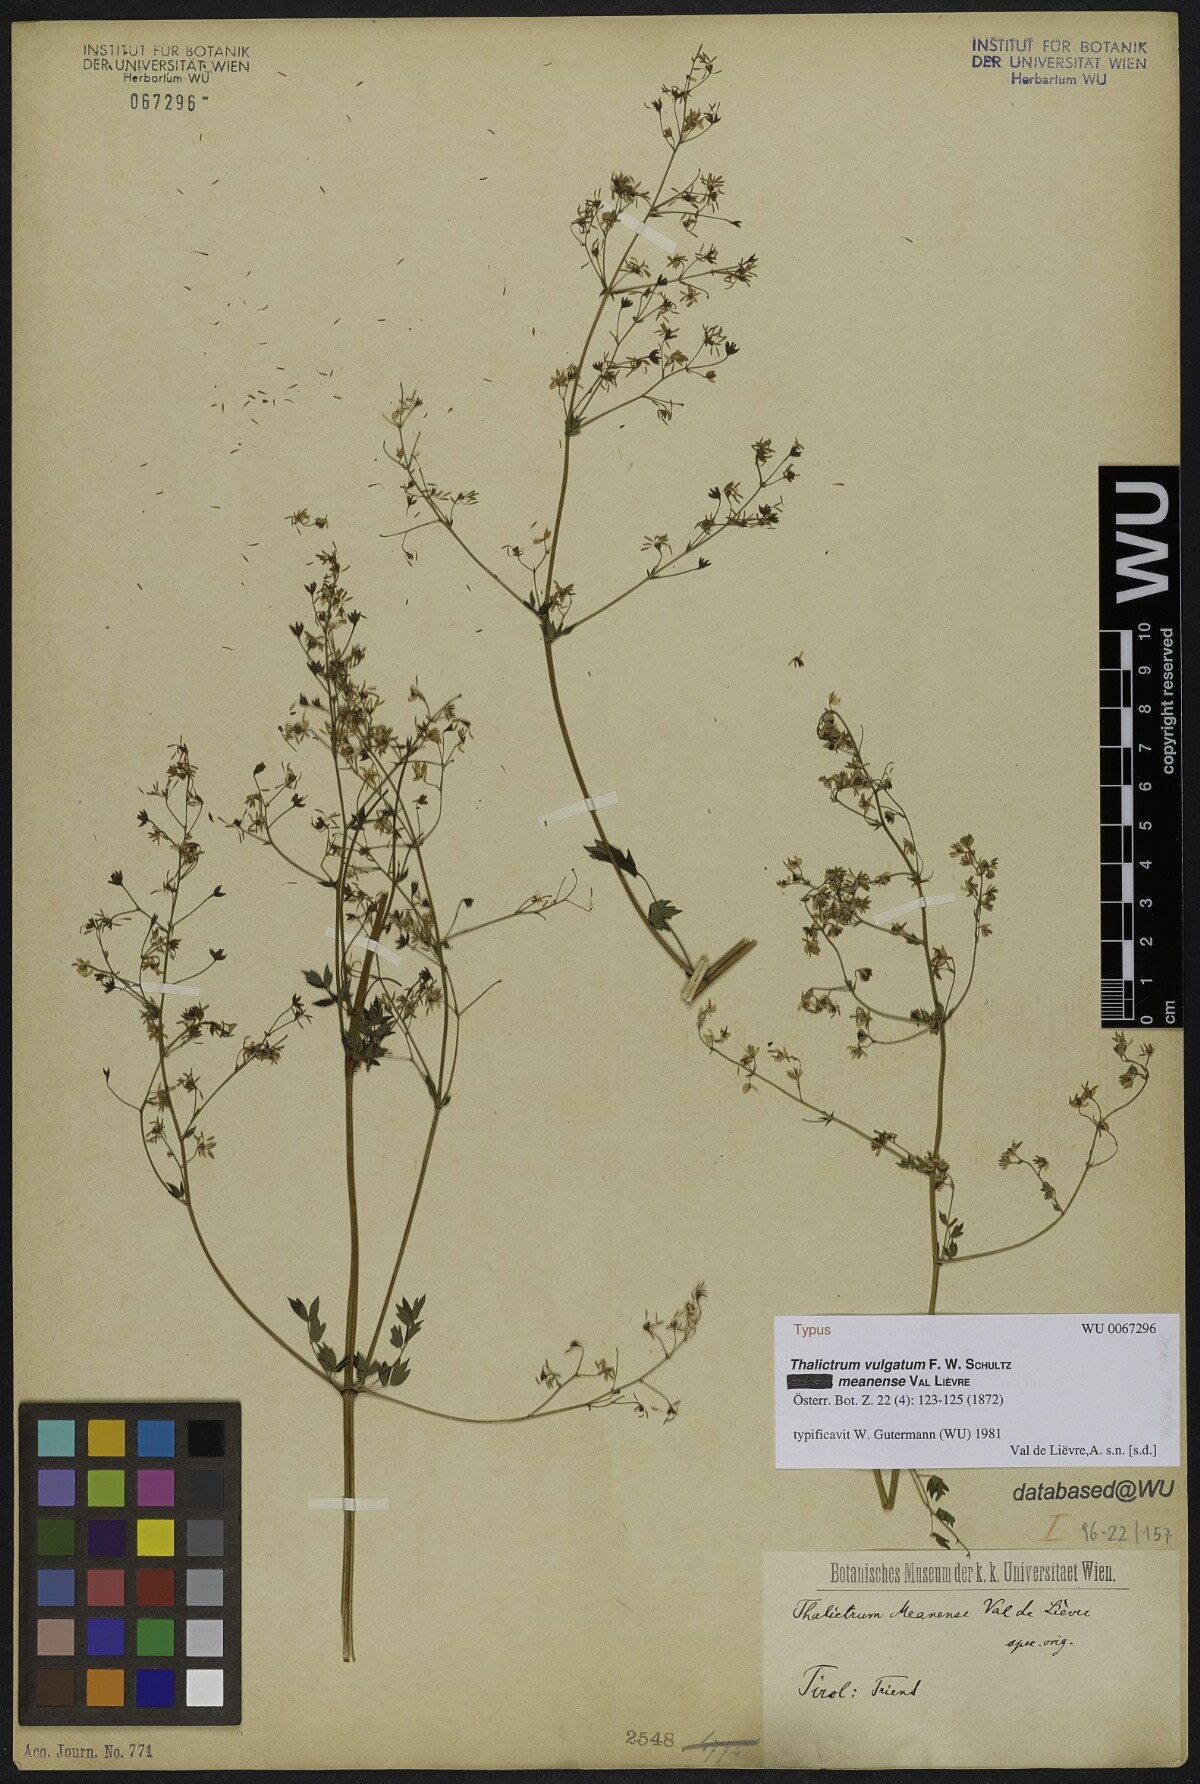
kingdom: Plantae
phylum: Tracheophyta
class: Magnoliopsida
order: Ranunculales
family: Ranunculaceae
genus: Thalictrum
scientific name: Thalictrum minus
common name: Lesser meadow-rue
